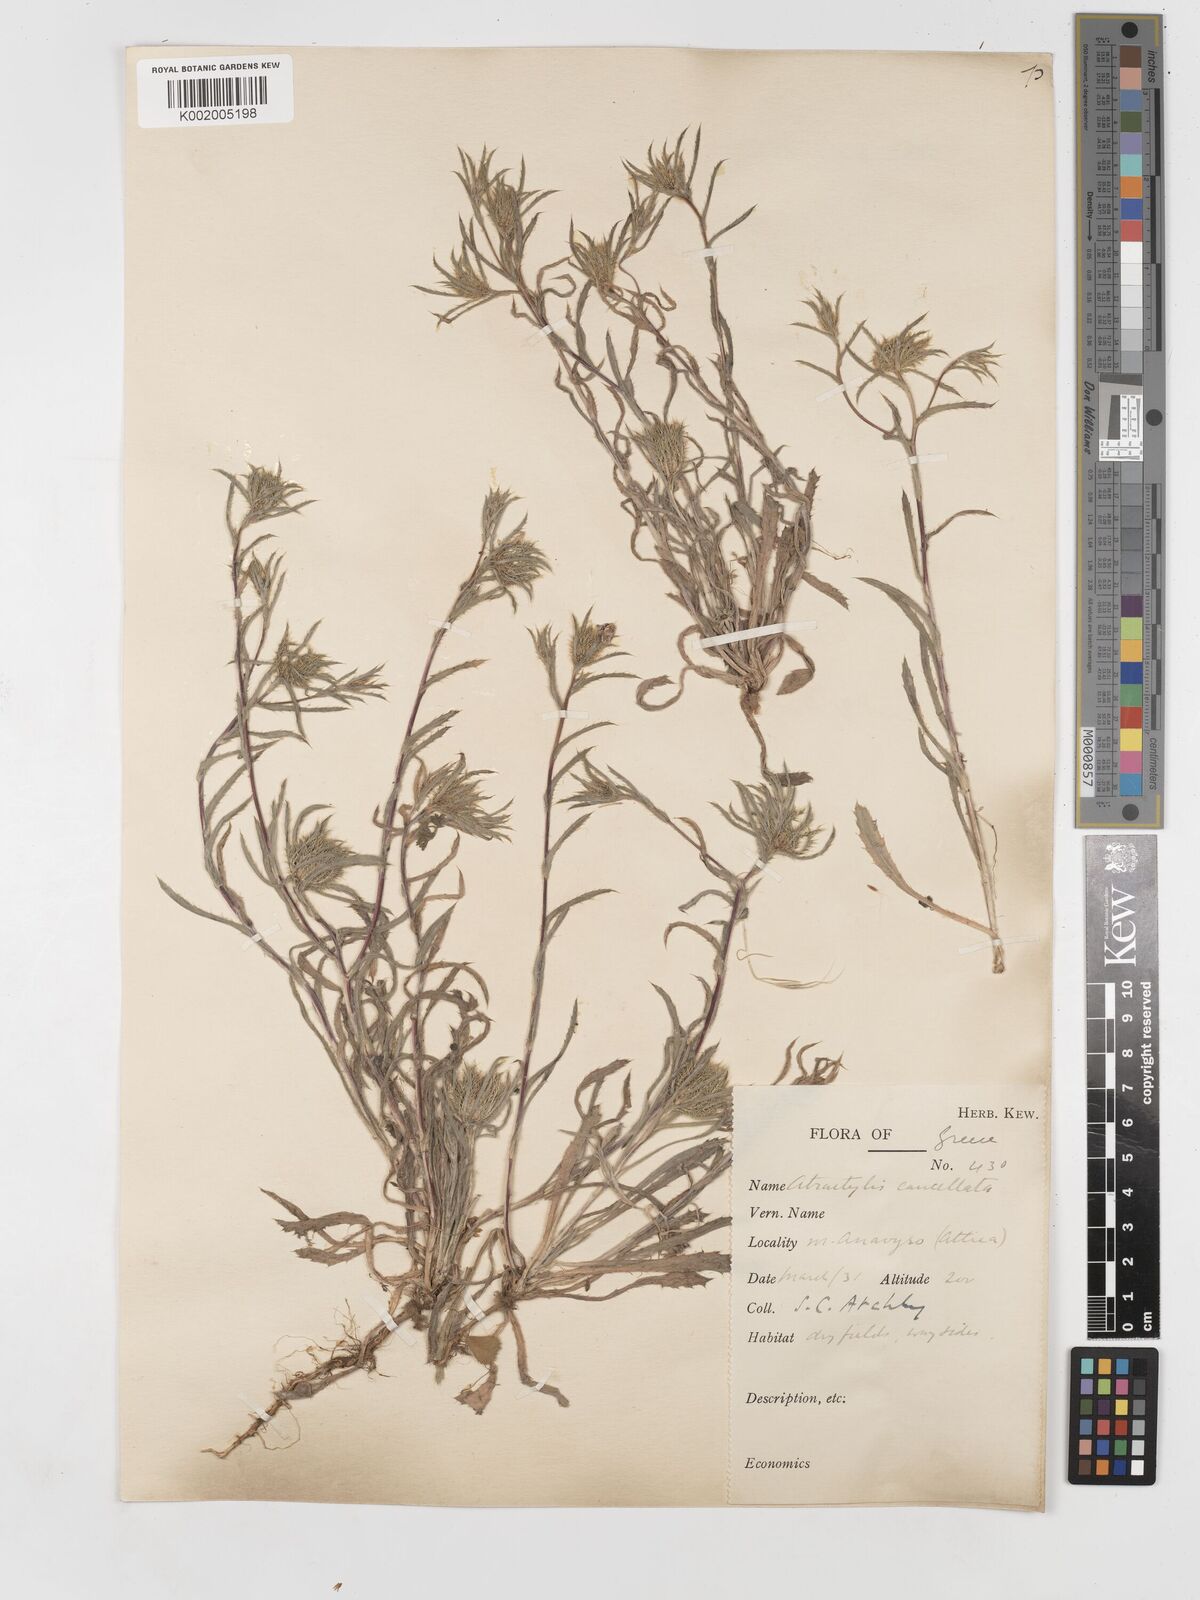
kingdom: Plantae
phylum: Tracheophyta
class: Magnoliopsida
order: Asterales
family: Asteraceae
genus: Atractylis
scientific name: Atractylis cancellata
